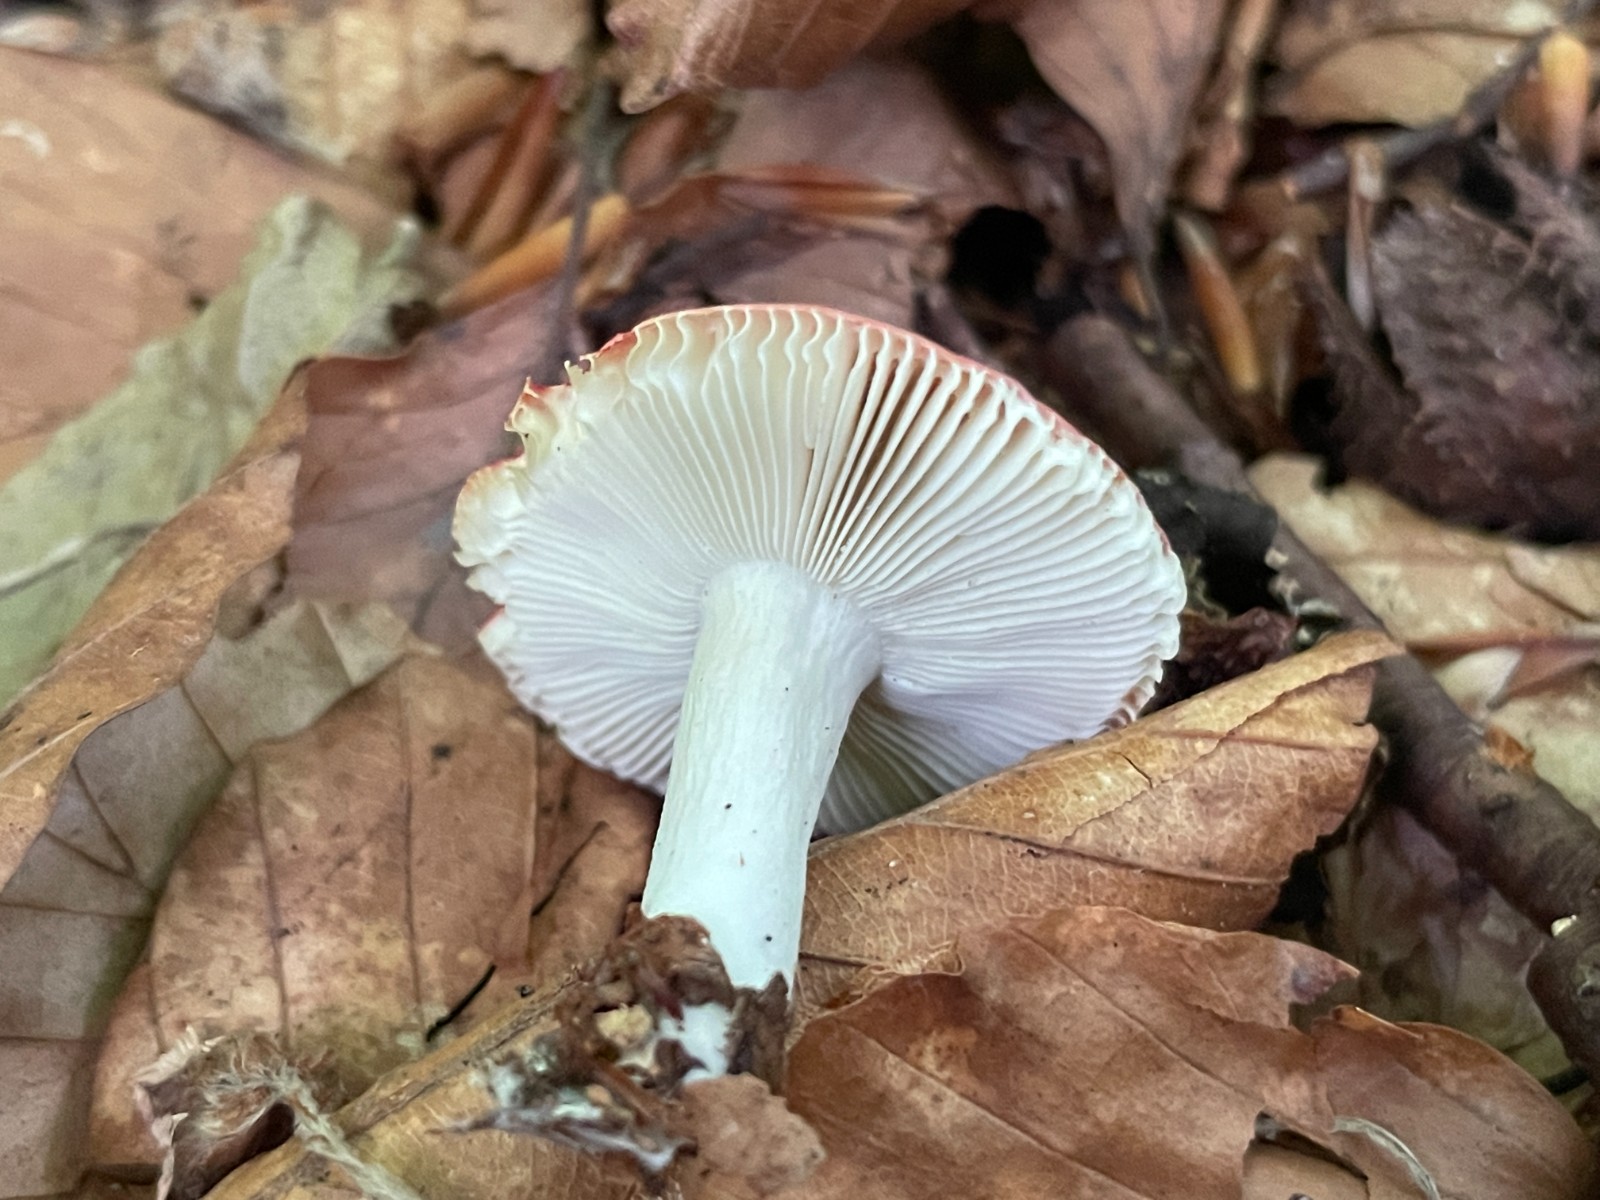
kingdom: Fungi
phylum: Basidiomycota
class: Agaricomycetes
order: Russulales
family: Russulaceae
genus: Russula
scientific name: Russula
